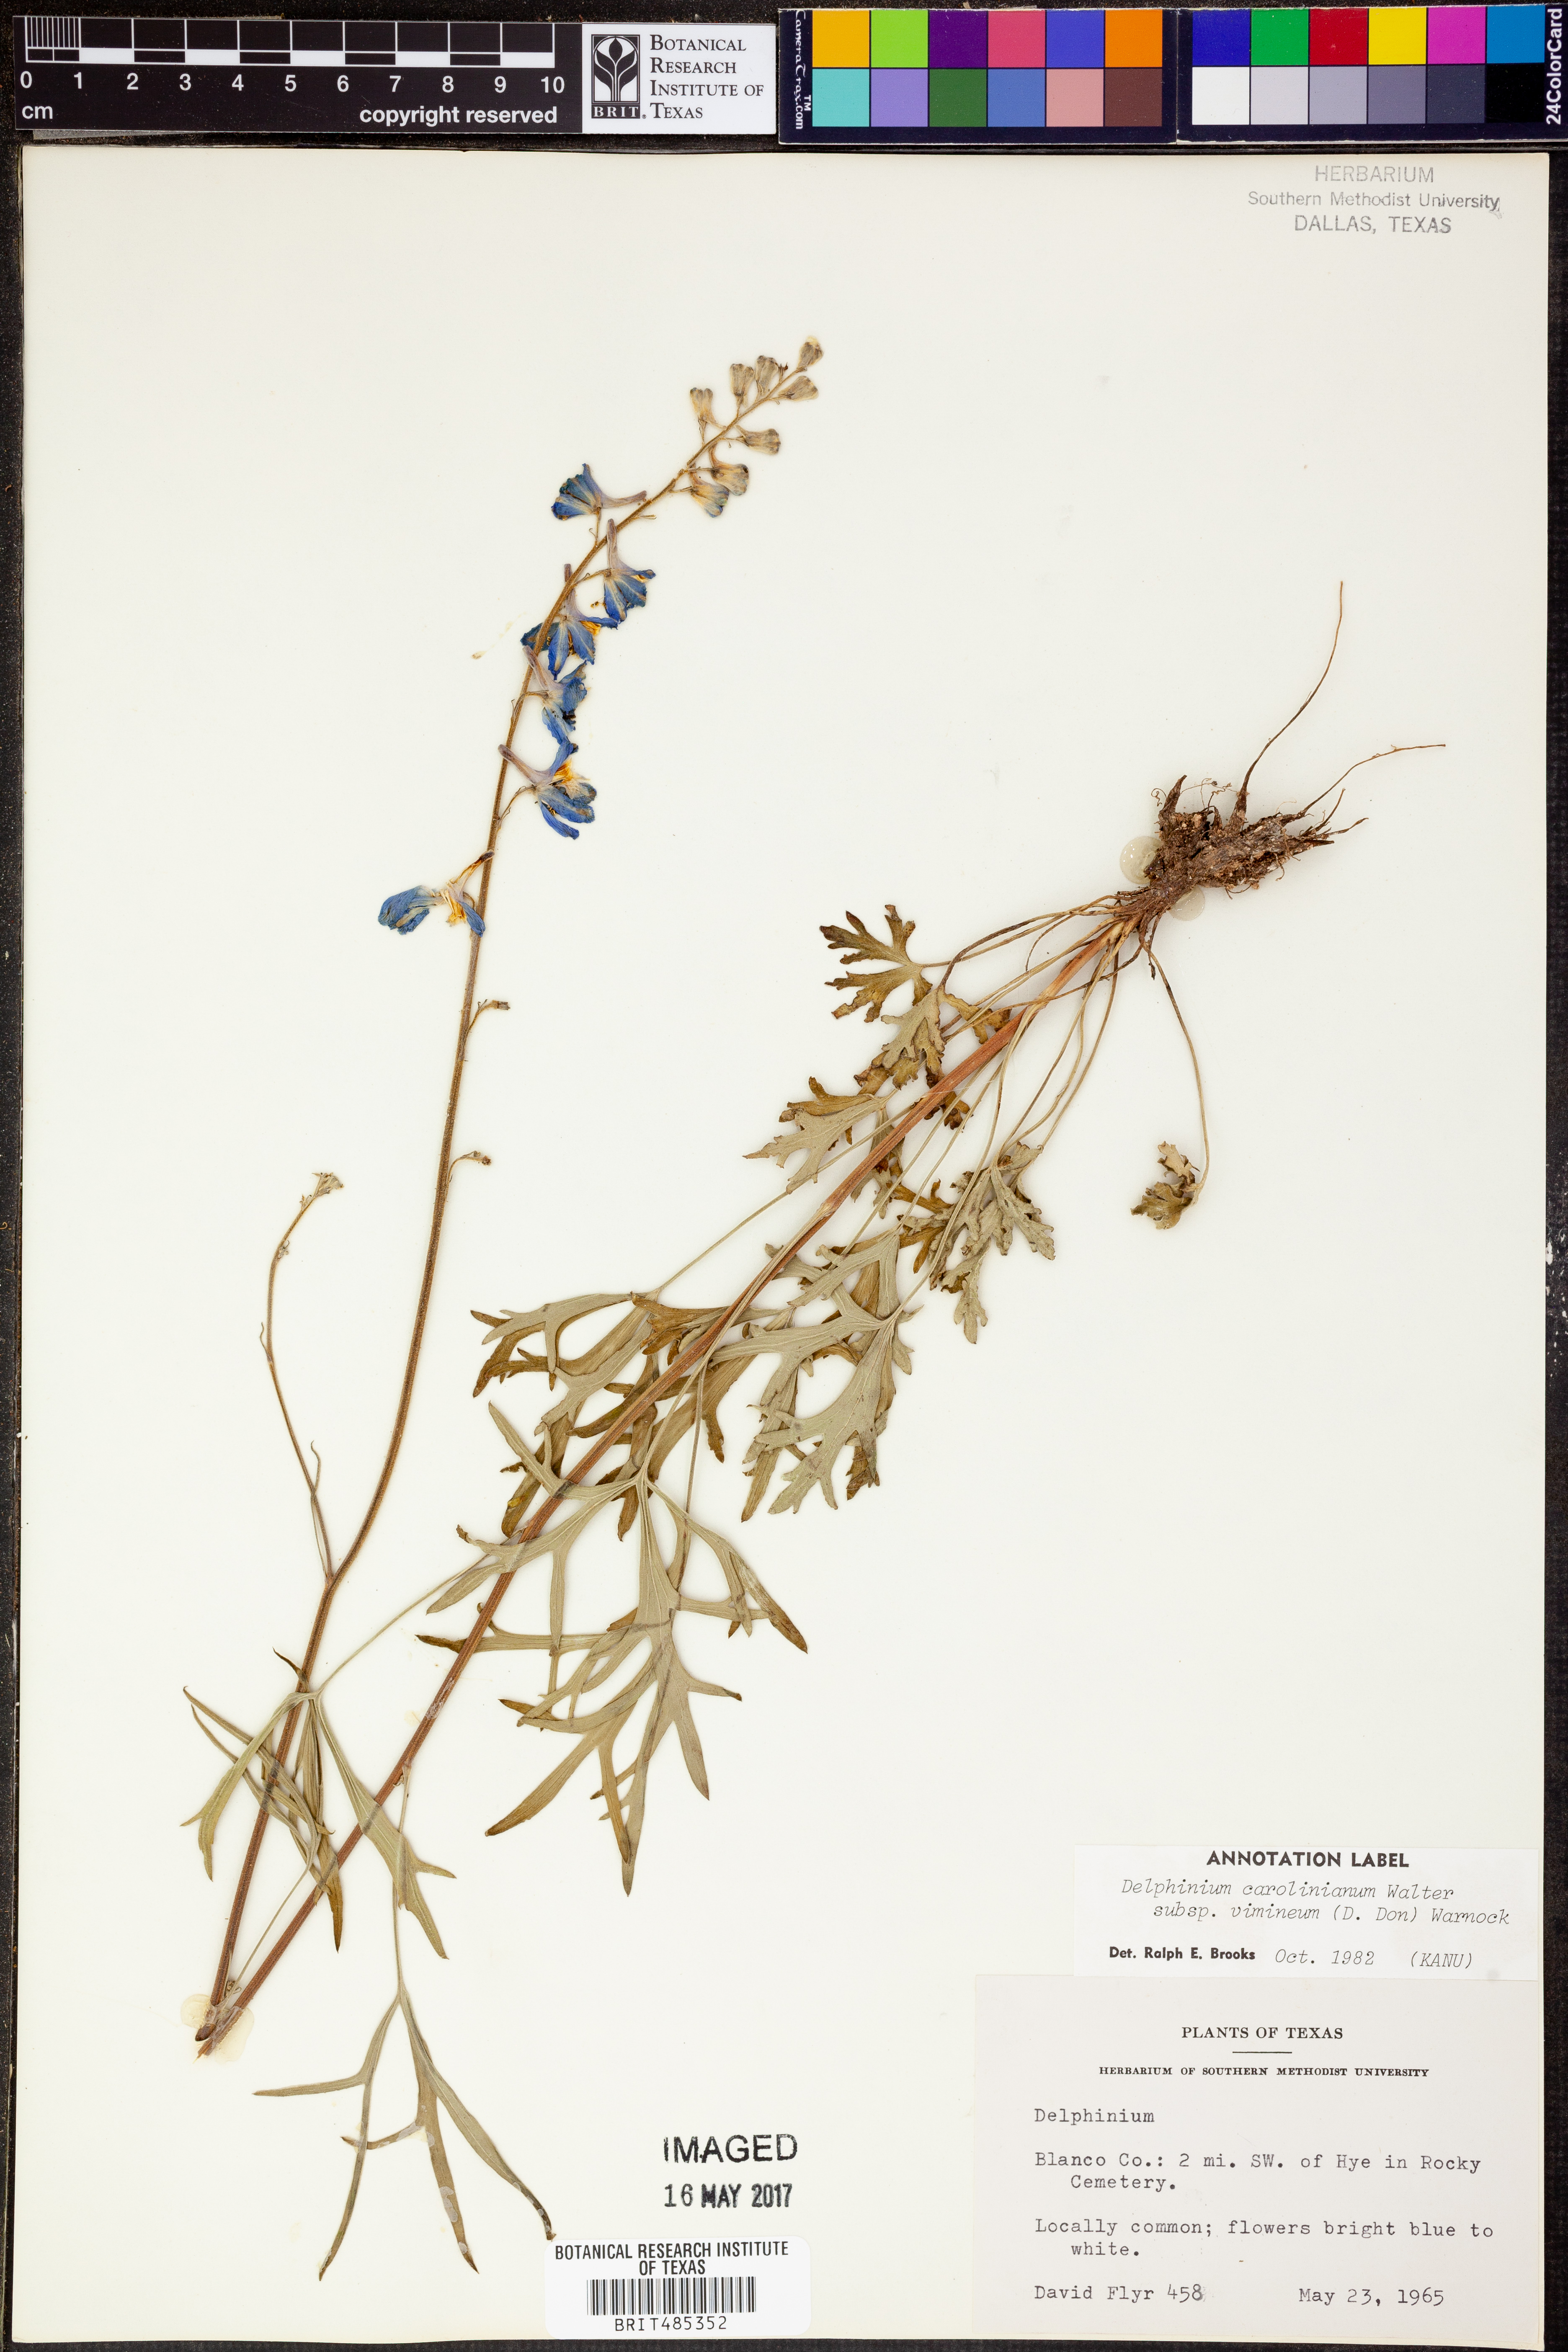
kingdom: Plantae
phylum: Tracheophyta
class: Magnoliopsida
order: Ranunculales
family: Ranunculaceae
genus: Delphinium
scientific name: Delphinium carolinianum
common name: Carolina larkspur
